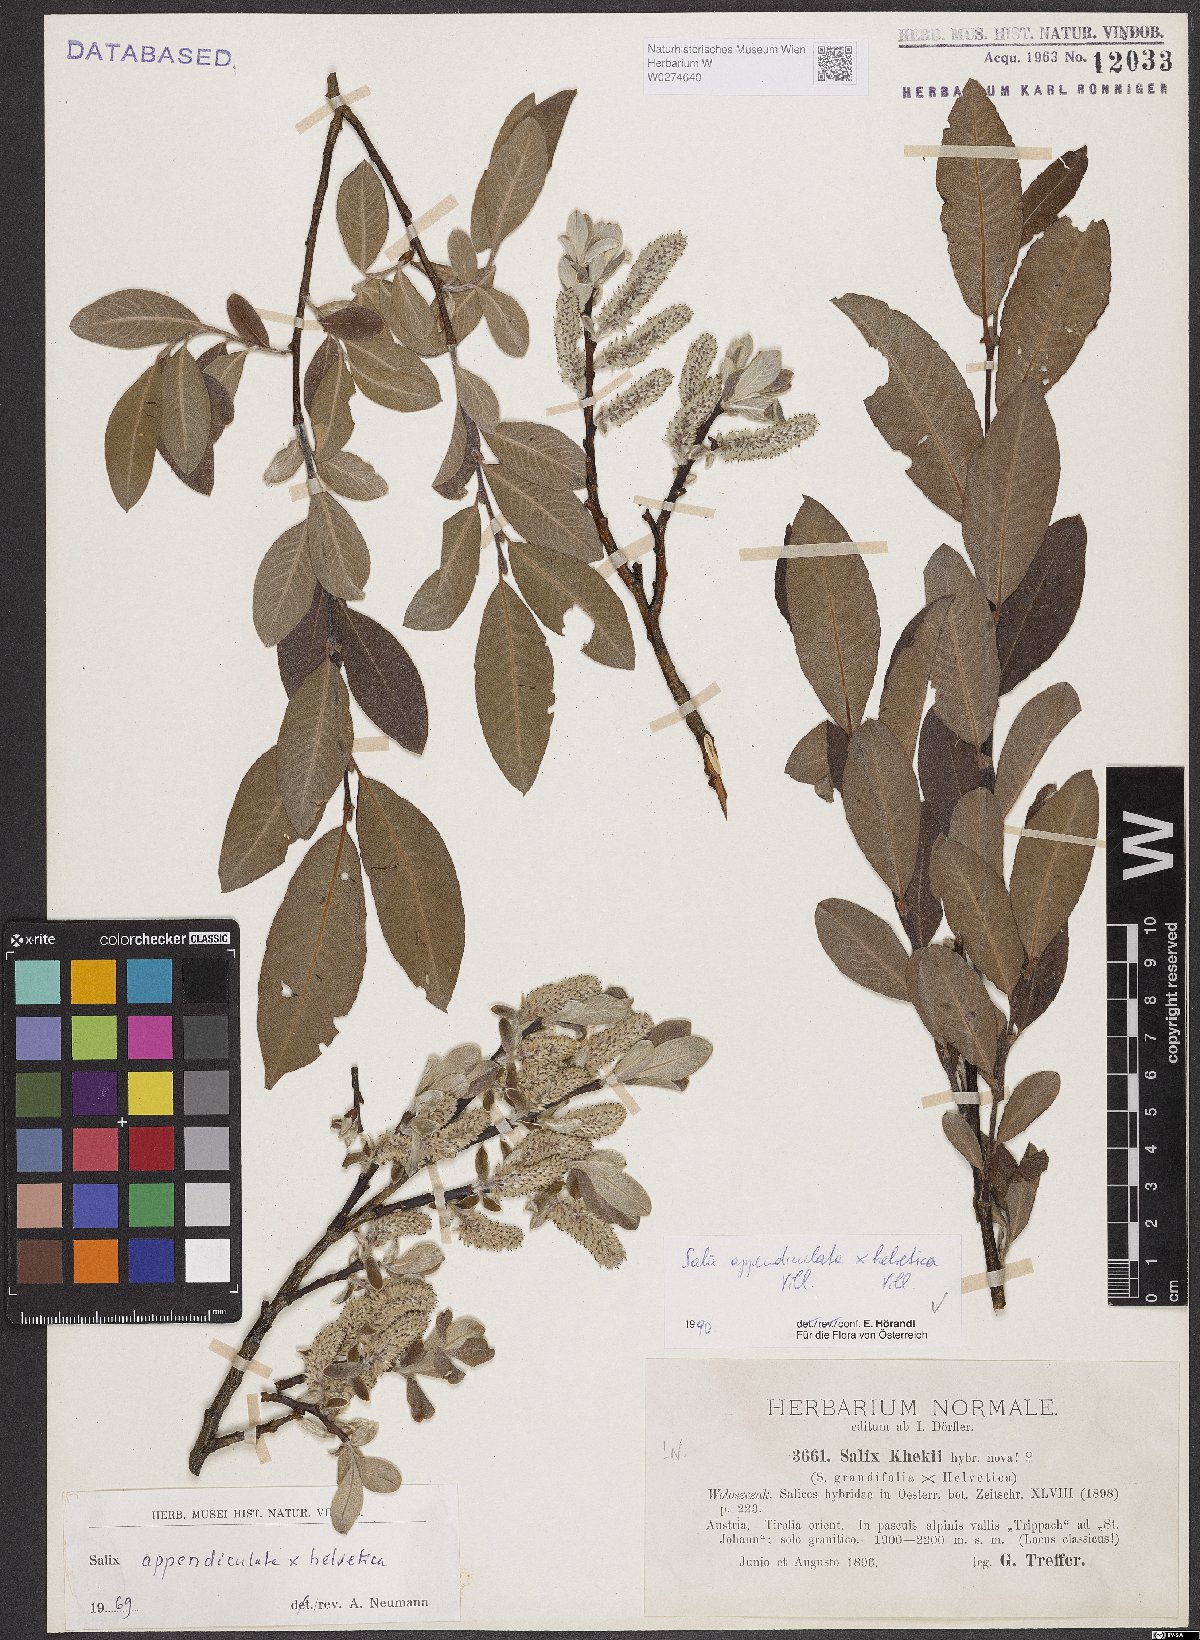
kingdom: Plantae
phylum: Tracheophyta
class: Magnoliopsida
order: Malpighiales
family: Salicaceae
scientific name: Salicaceae
